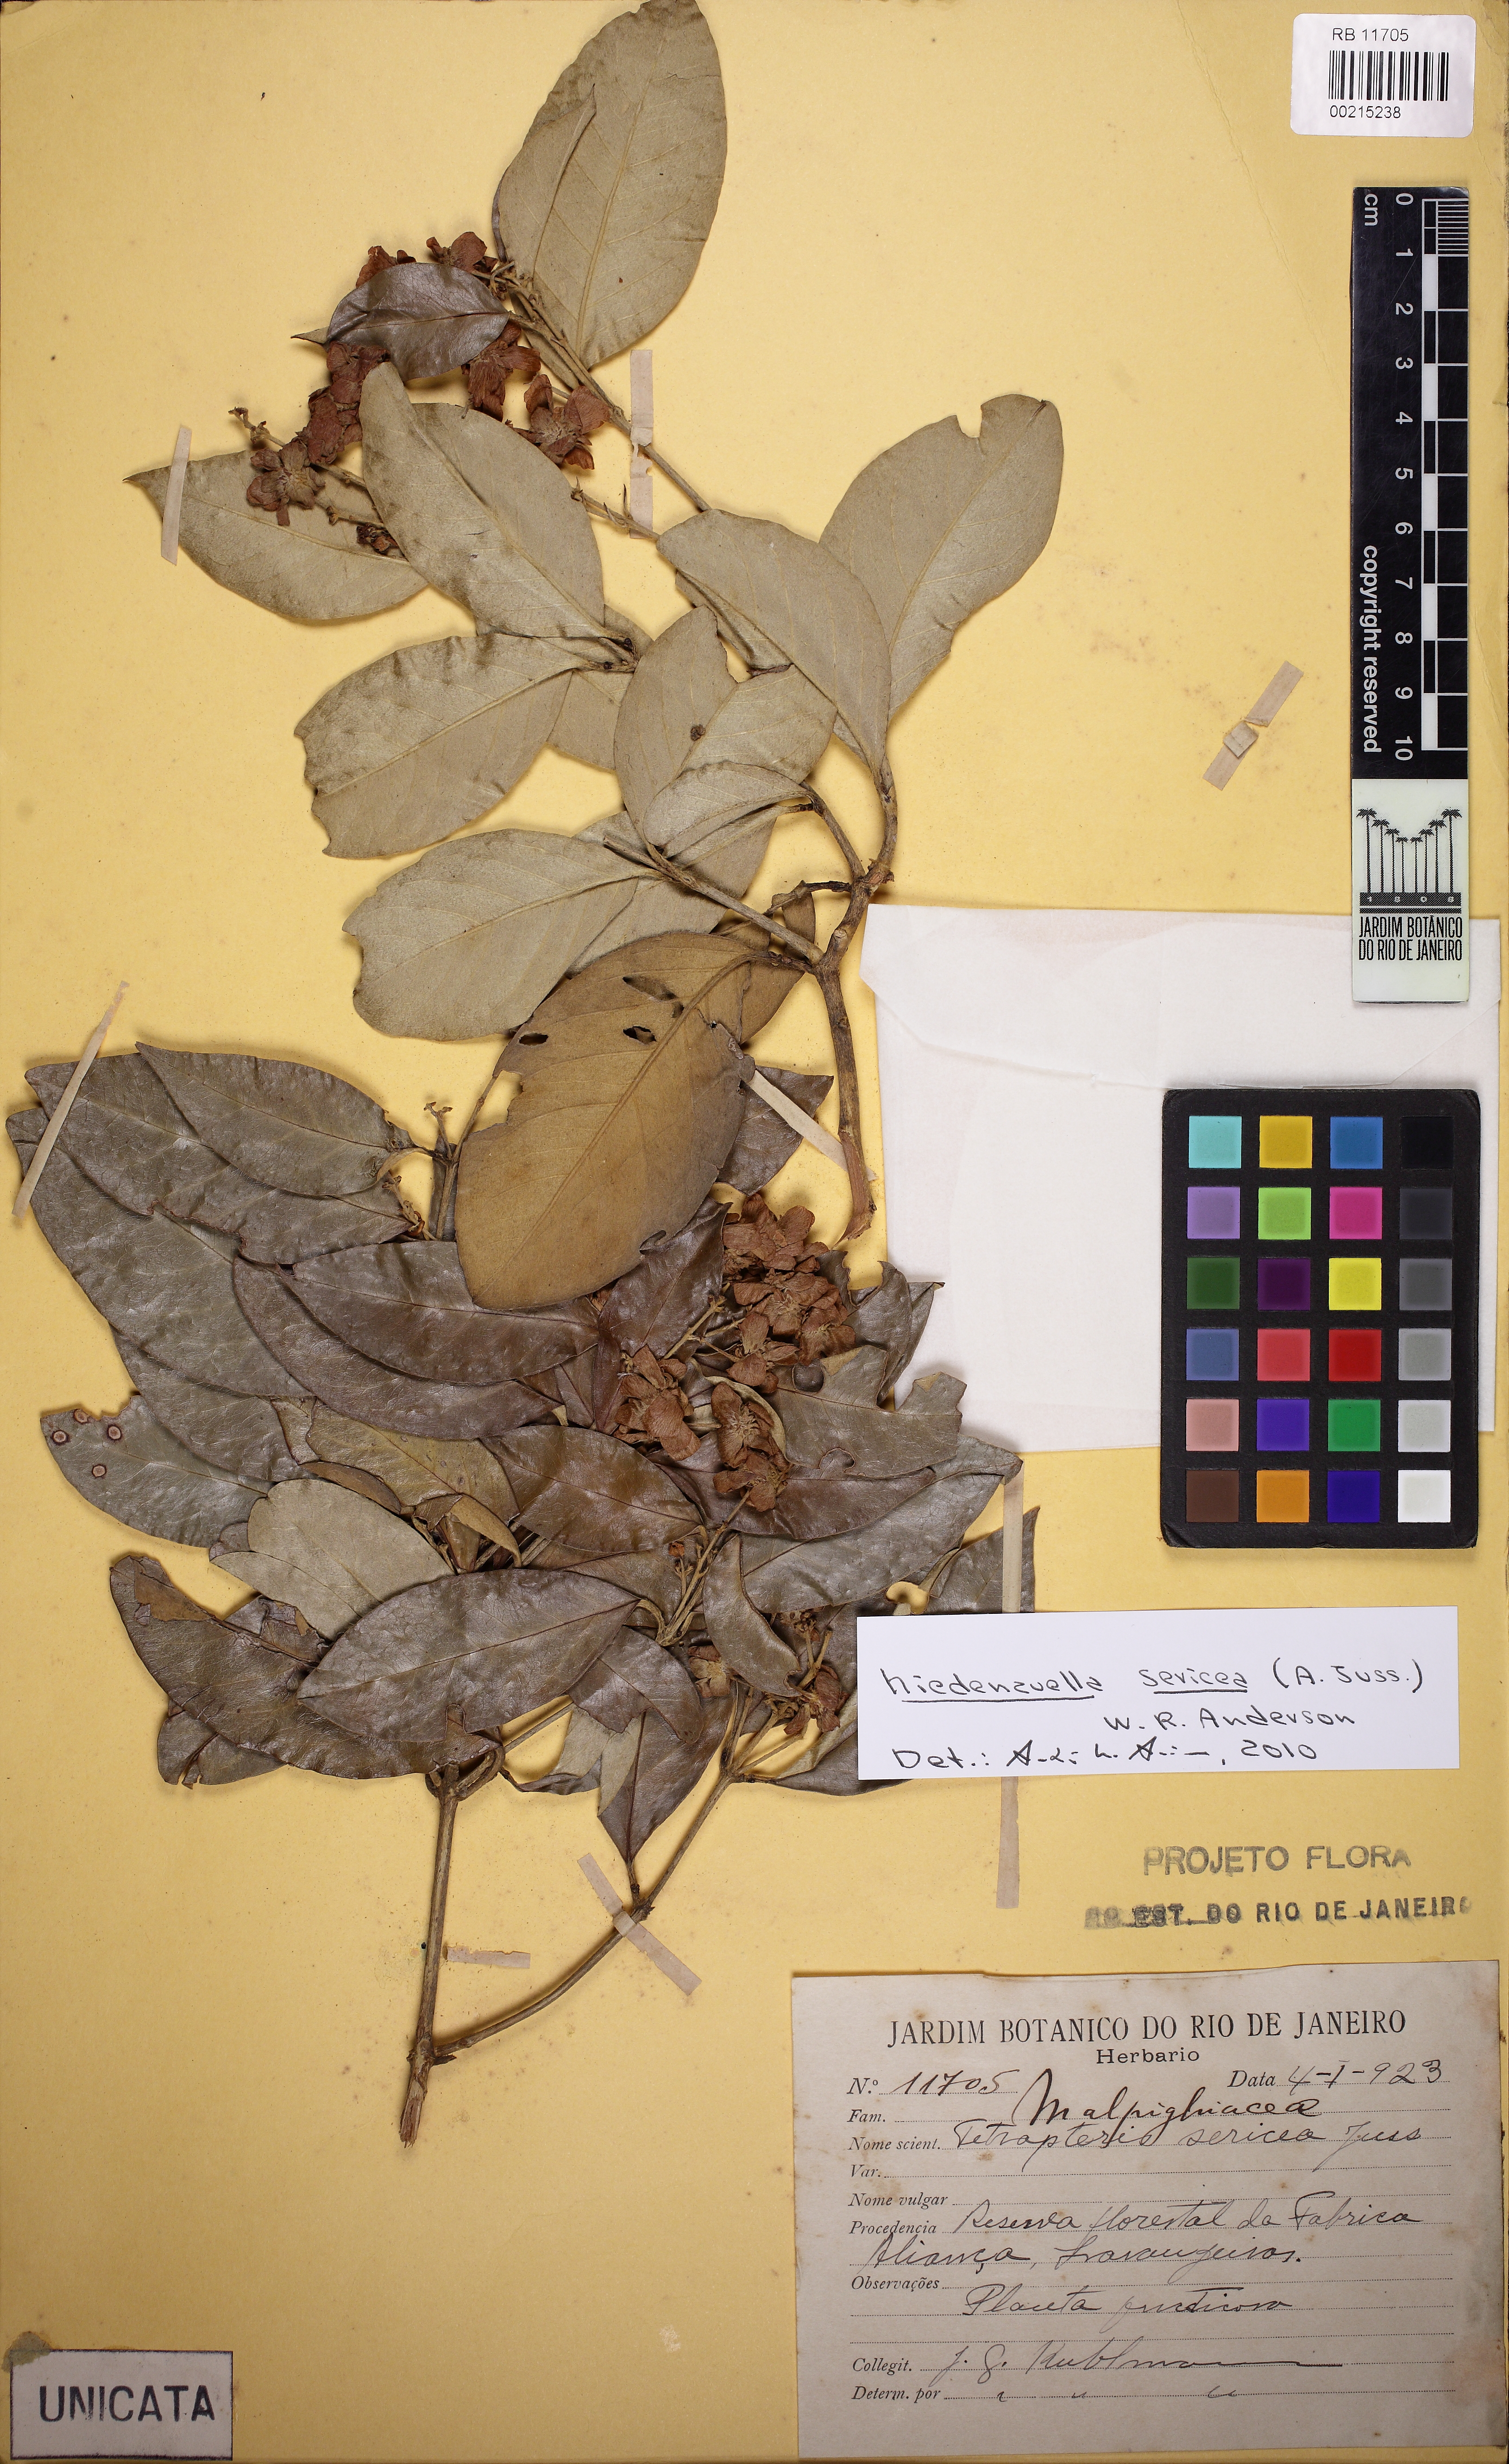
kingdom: Plantae
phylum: Tracheophyta
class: Magnoliopsida
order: Malpighiales
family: Malpighiaceae
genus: Niedenzuella
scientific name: Niedenzuella sericea
